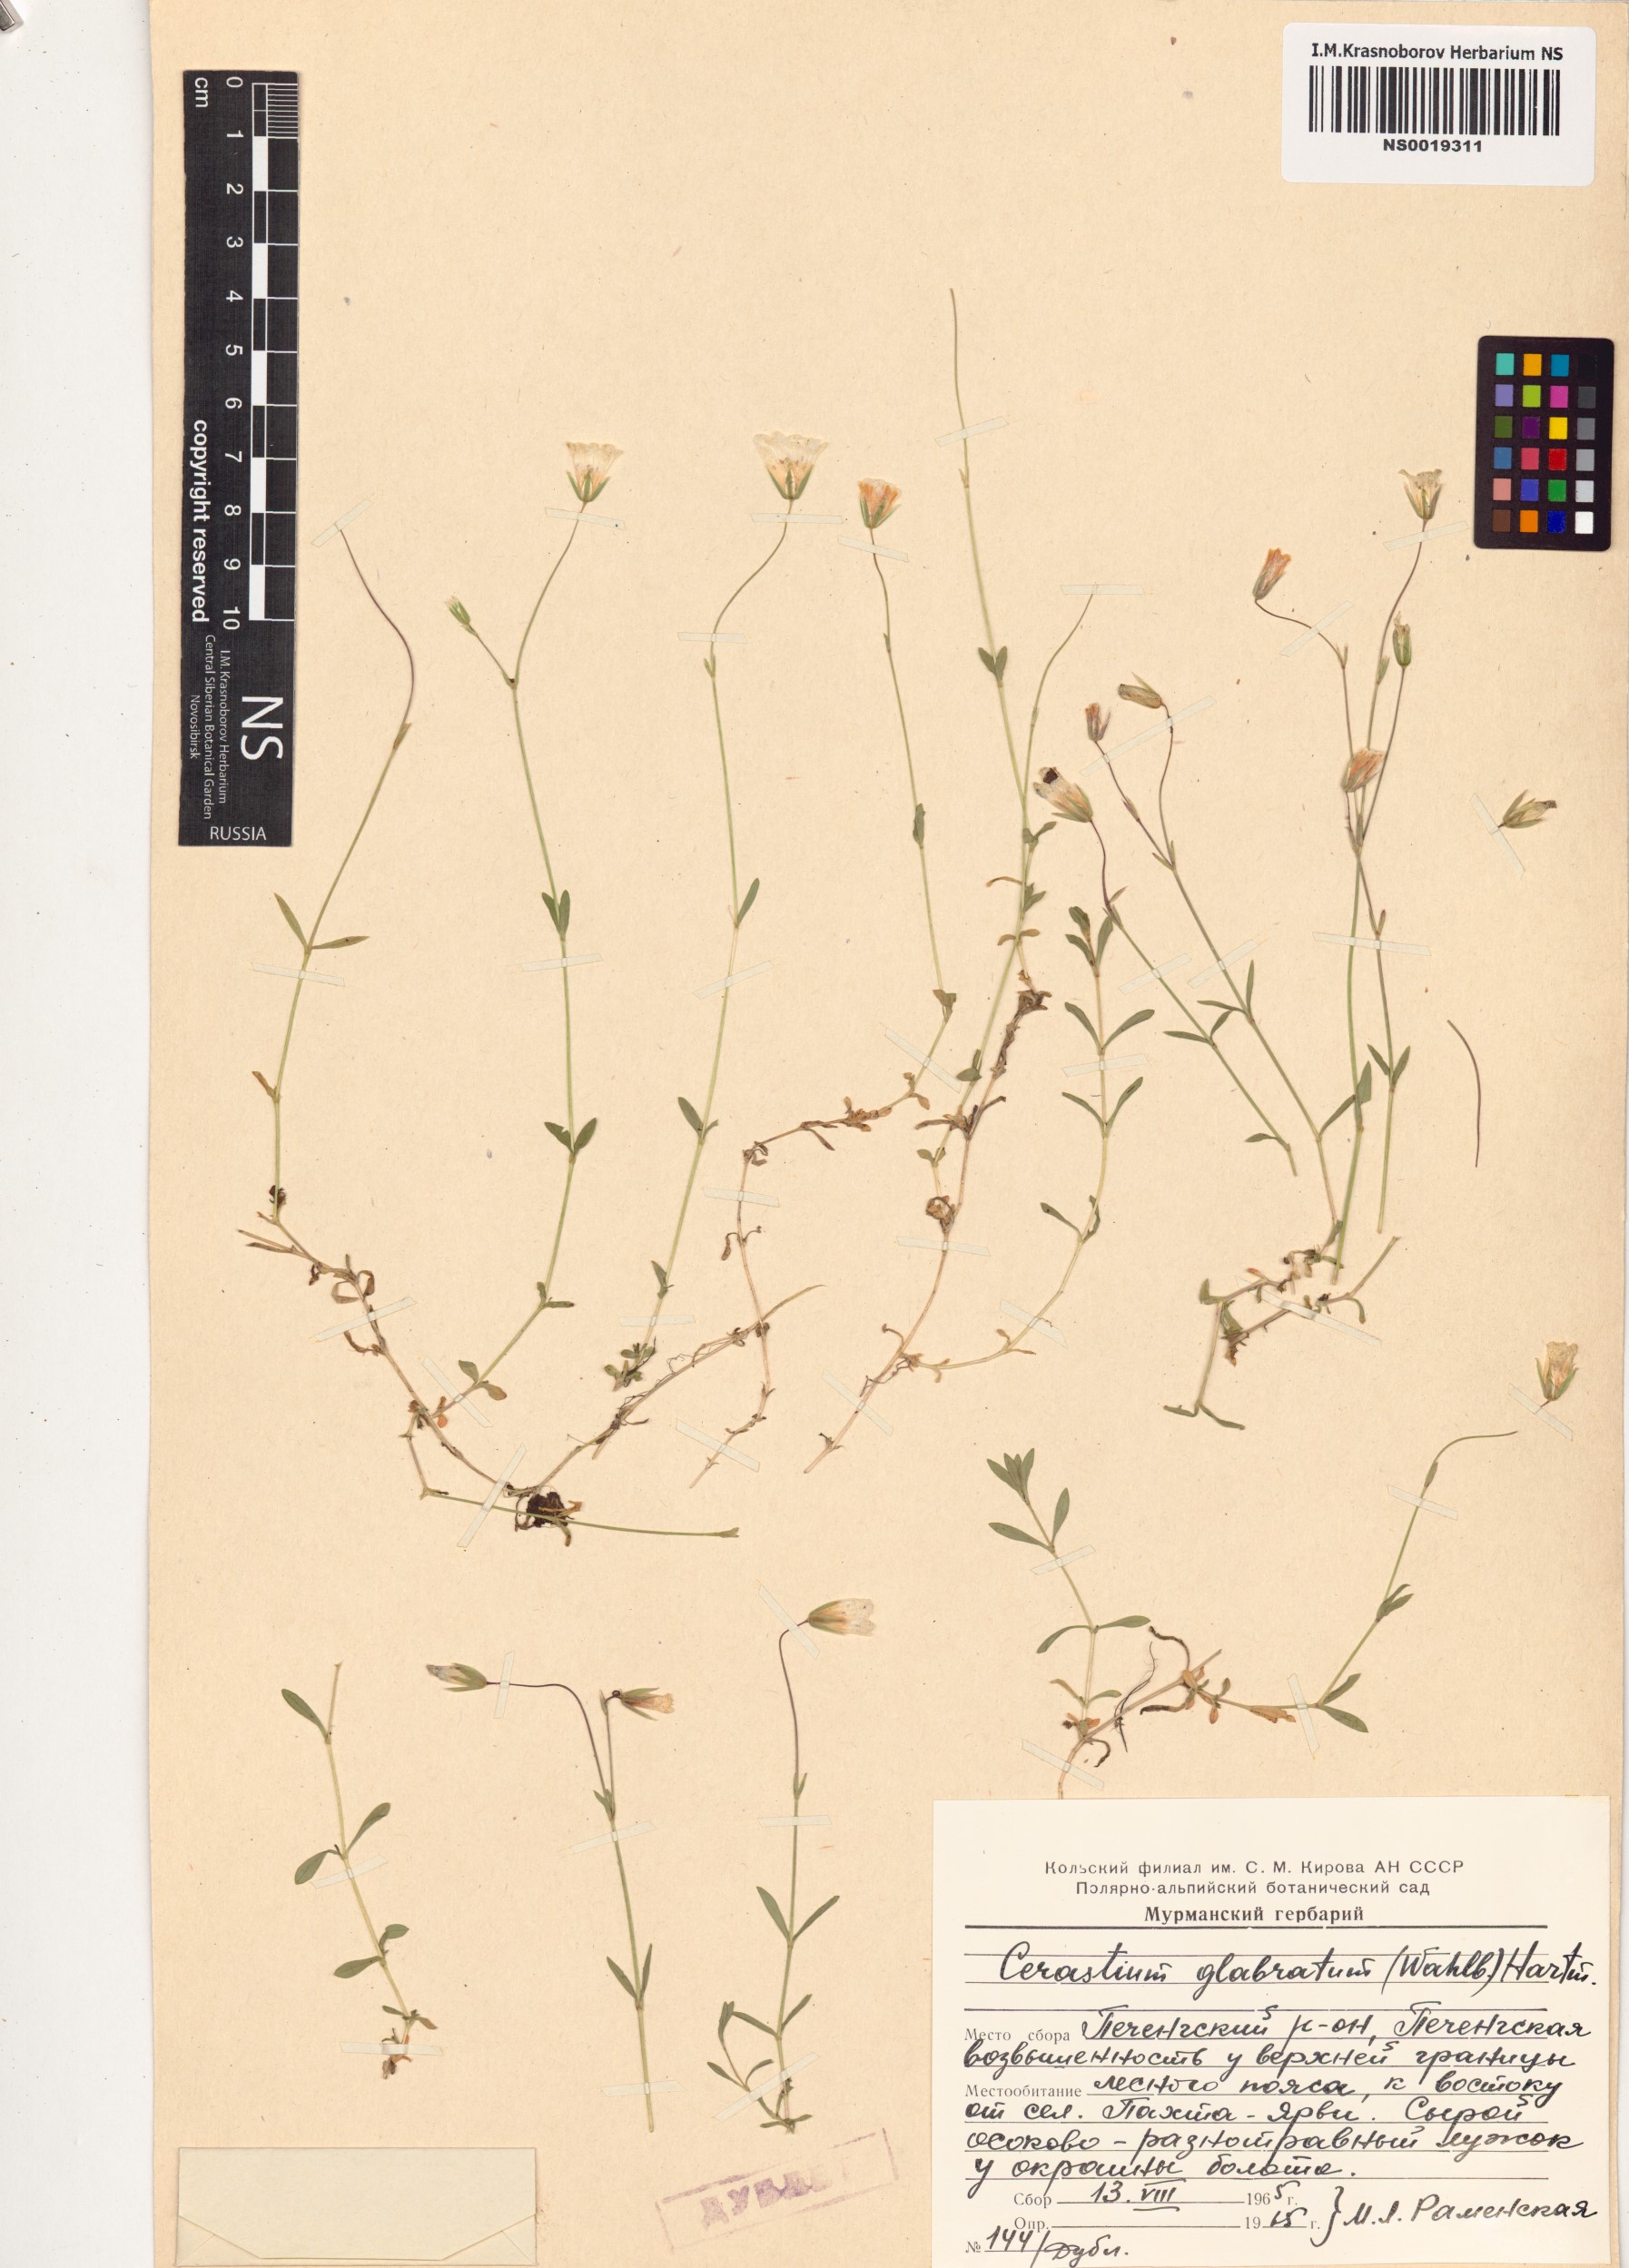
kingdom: Plantae
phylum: Tracheophyta
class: Magnoliopsida
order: Caryophyllales
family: Caryophyllaceae
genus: Cerastium
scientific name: Cerastium alpinum
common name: Alpine mouse-ear
